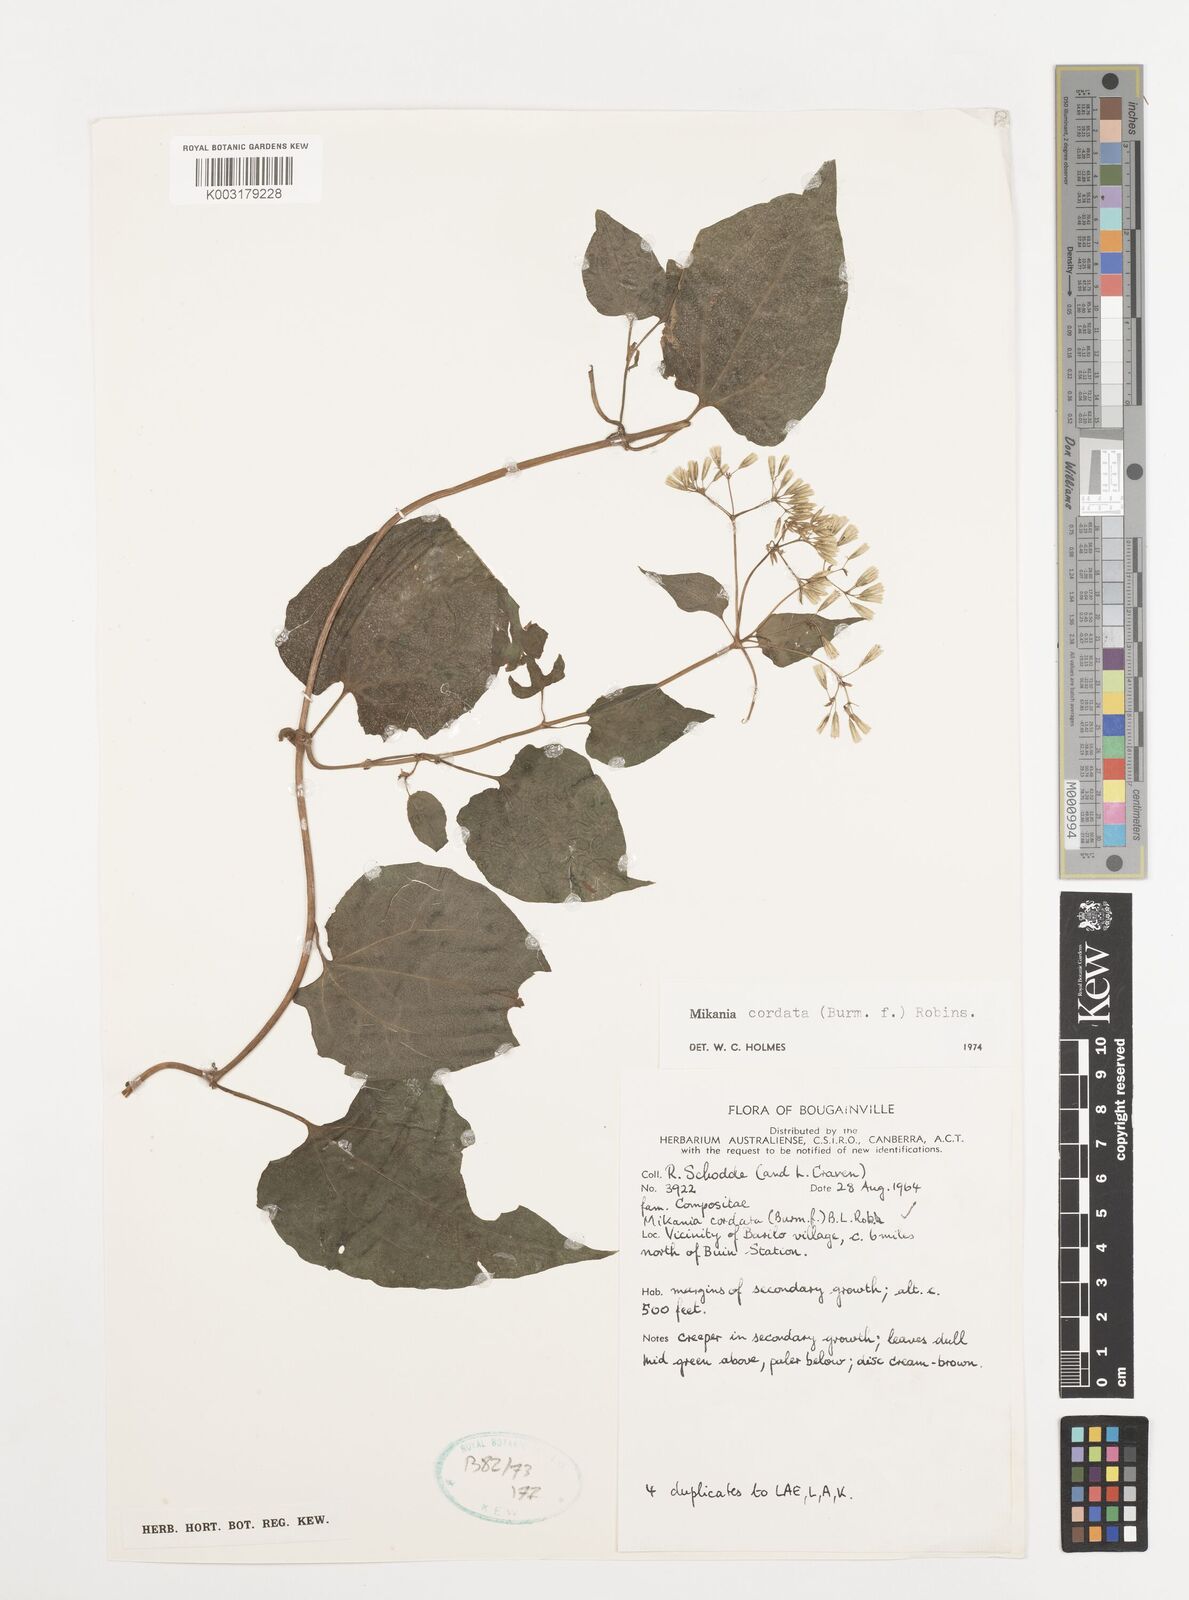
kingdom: Plantae
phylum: Tracheophyta
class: Magnoliopsida
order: Asterales
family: Asteraceae
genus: Mikania
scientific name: Mikania cordata
